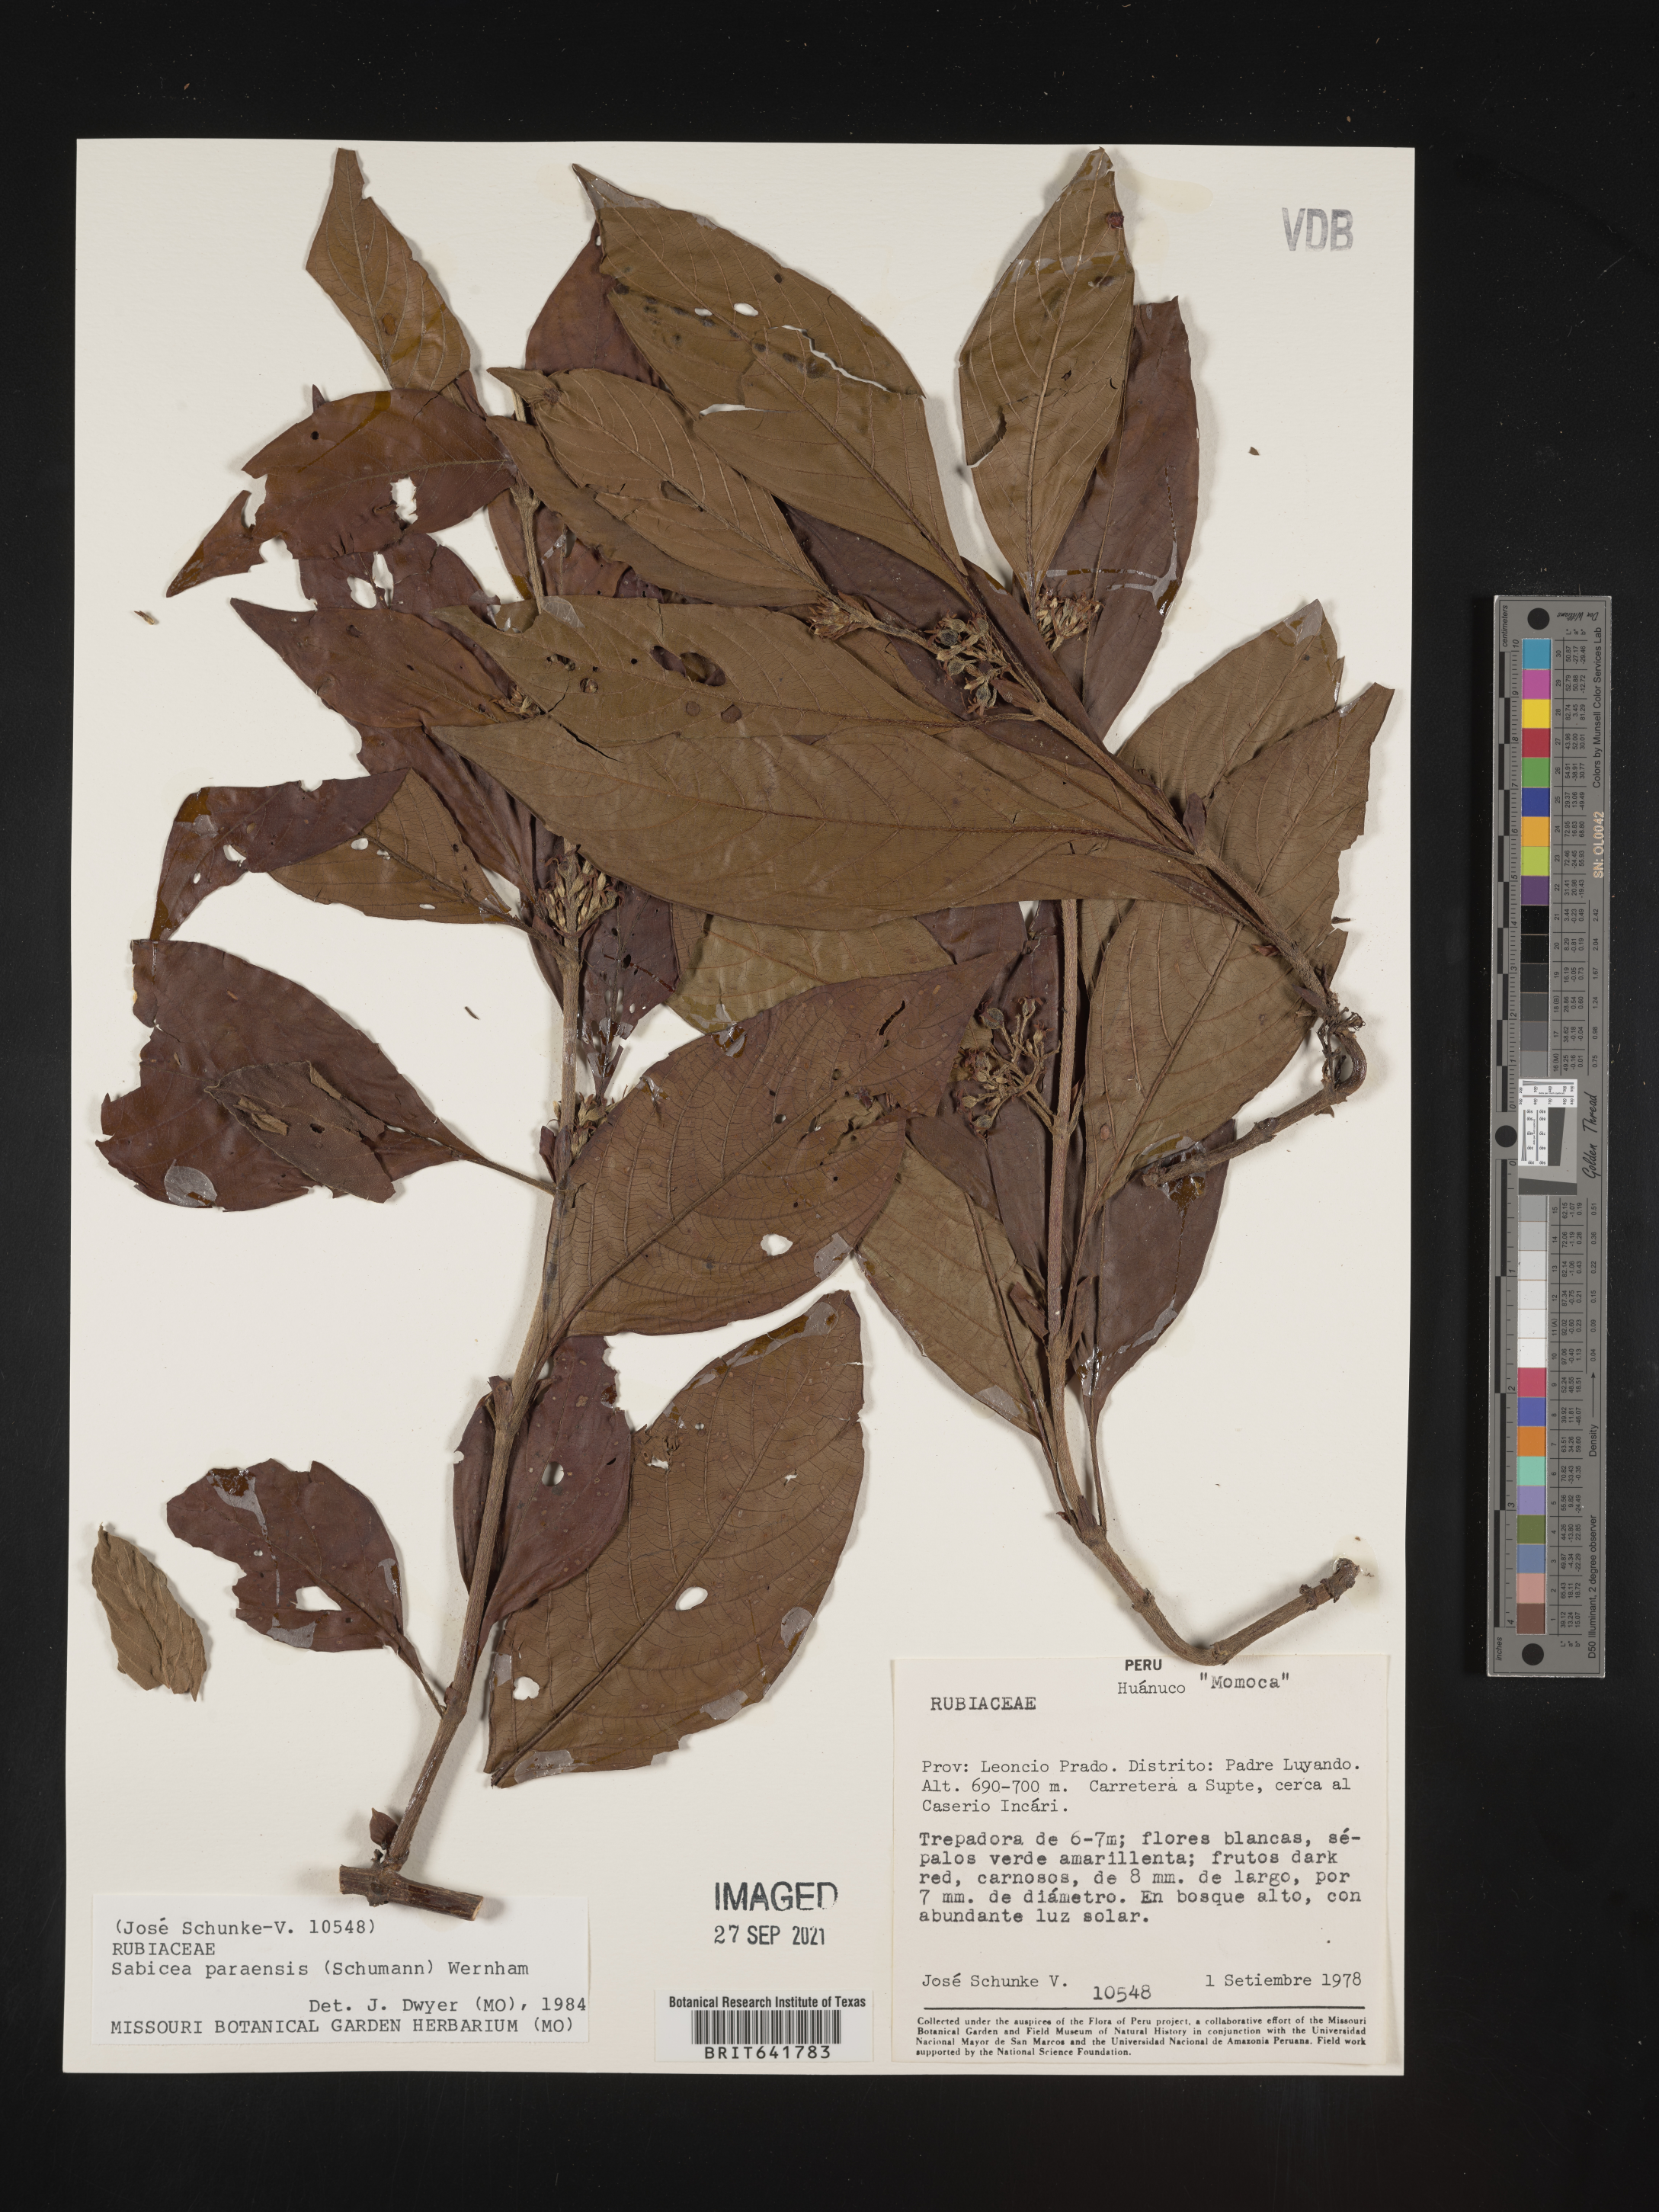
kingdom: Plantae
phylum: Tracheophyta
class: Magnoliopsida
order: Gentianales
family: Rubiaceae
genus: Sabicea
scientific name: Sabicea
